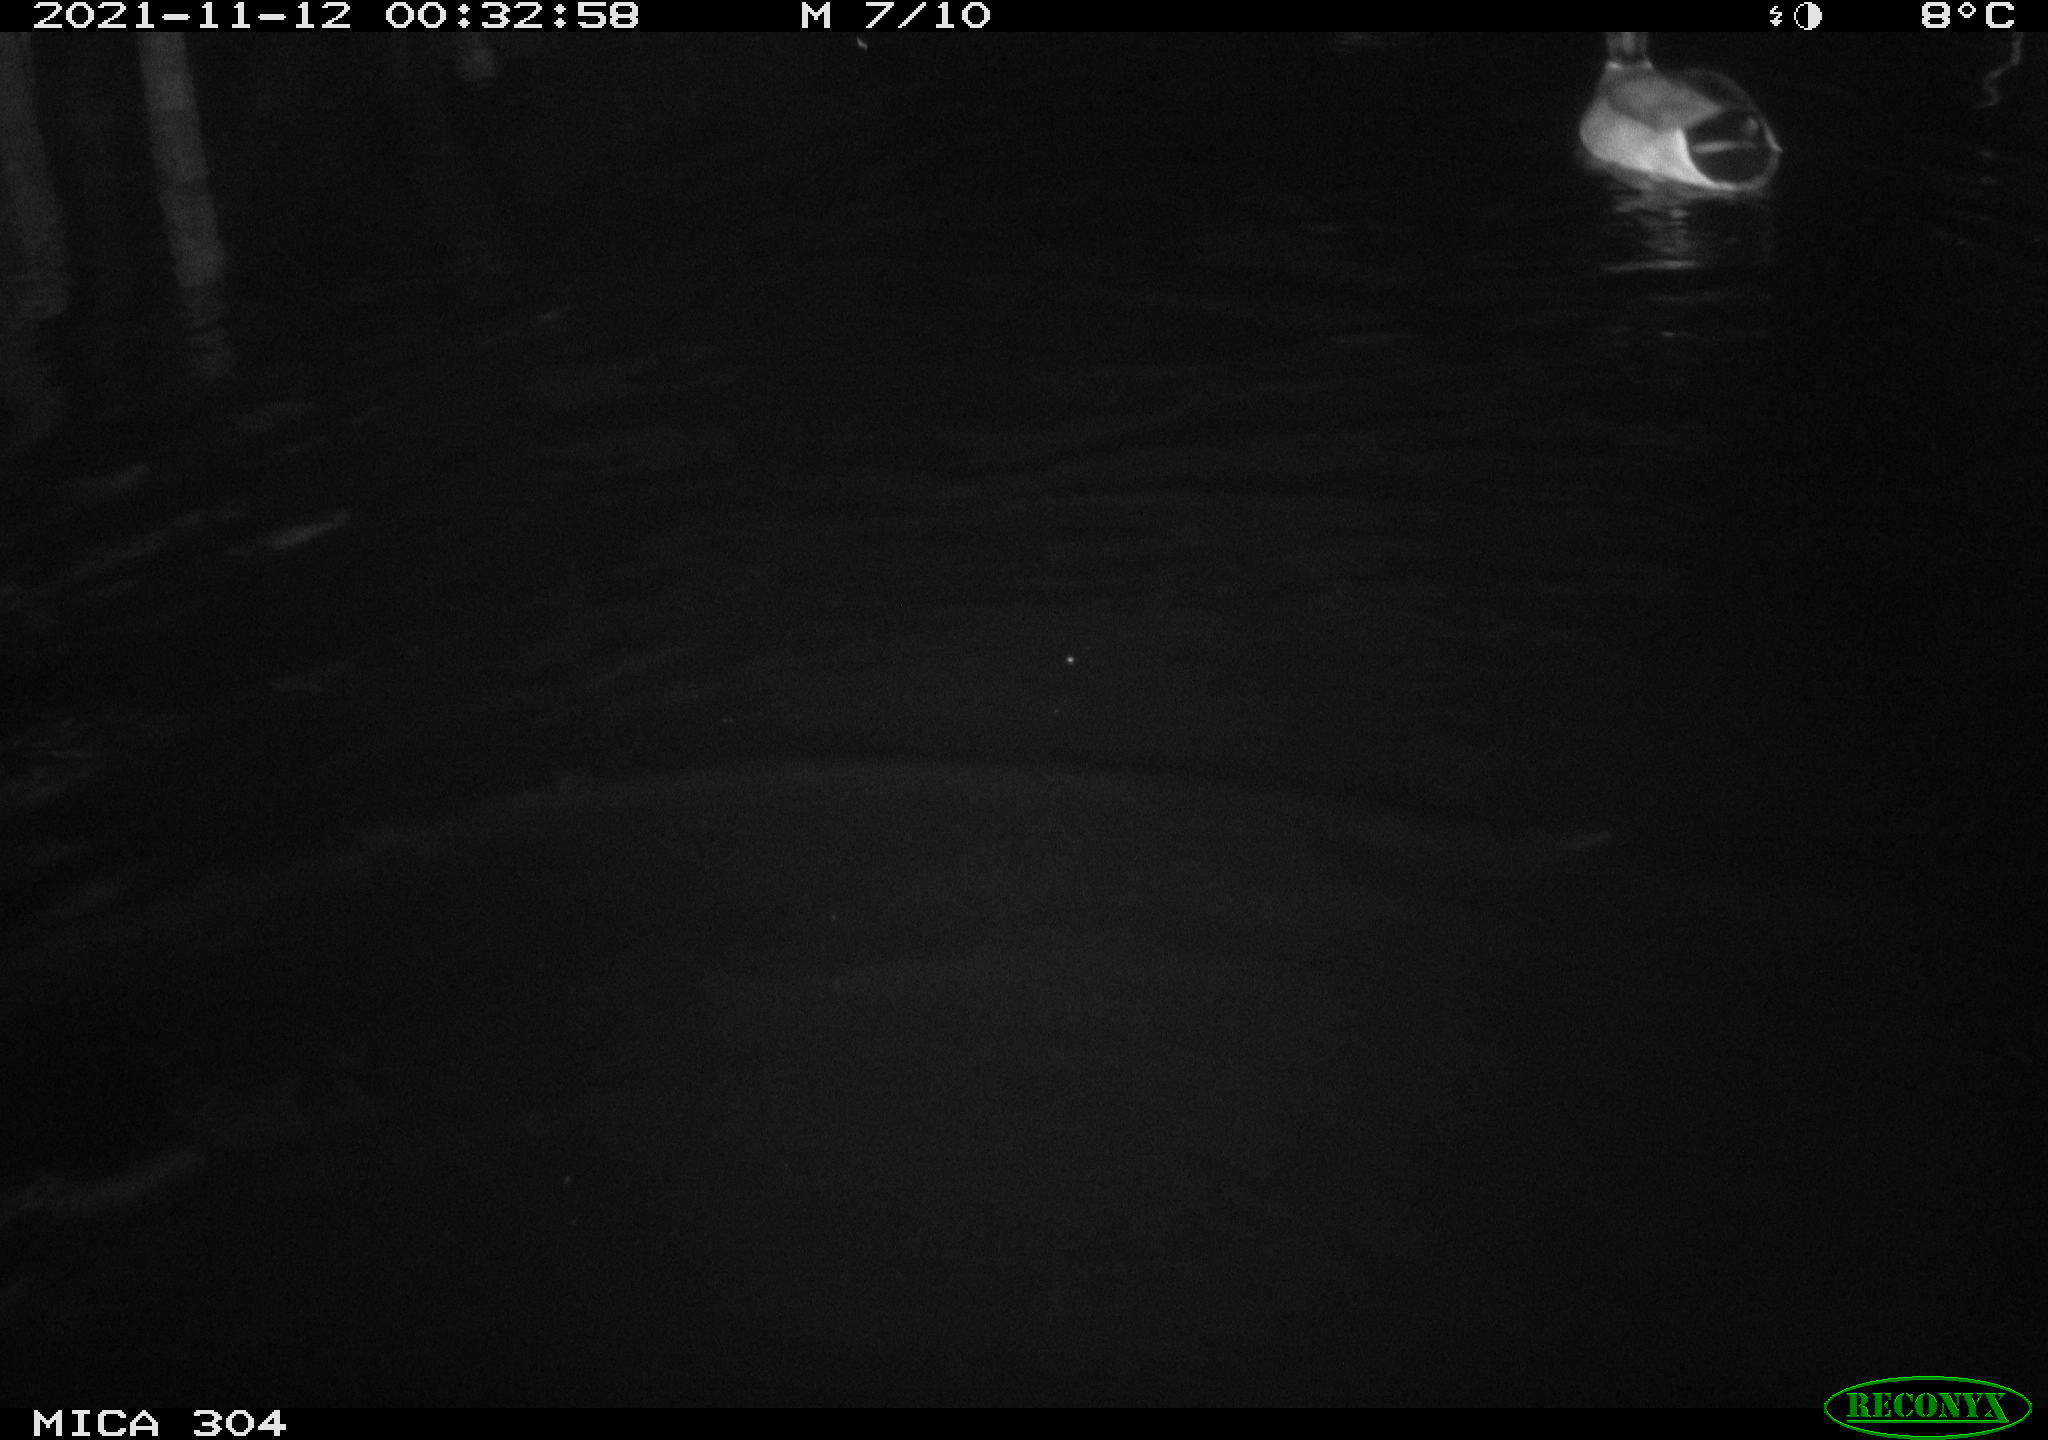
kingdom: Animalia
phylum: Chordata
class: Aves
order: Anseriformes
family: Anatidae
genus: Anas
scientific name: Anas platyrhynchos
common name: Mallard
